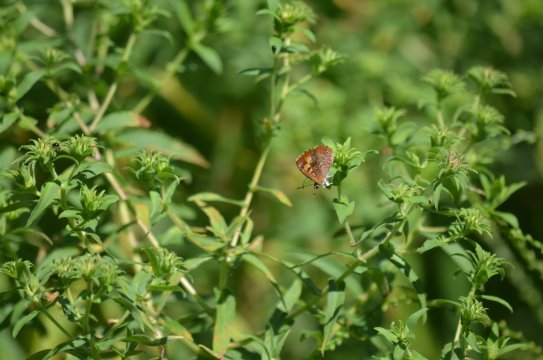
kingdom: Animalia
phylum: Arthropoda
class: Insecta
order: Lepidoptera
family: Lycaenidae
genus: Feniseca
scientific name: Feniseca tarquinius
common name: Harvester
